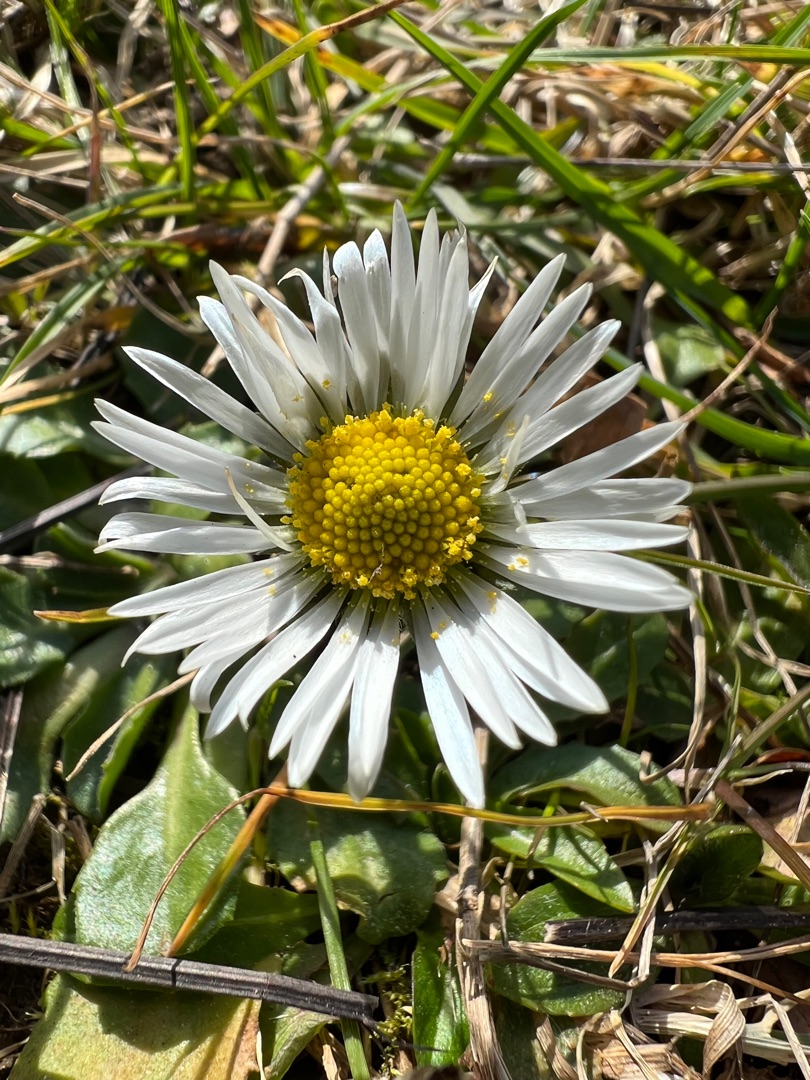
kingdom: Plantae
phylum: Tracheophyta
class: Magnoliopsida
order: Asterales
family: Asteraceae
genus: Bellis
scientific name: Bellis perennis
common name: Tusindfryd
